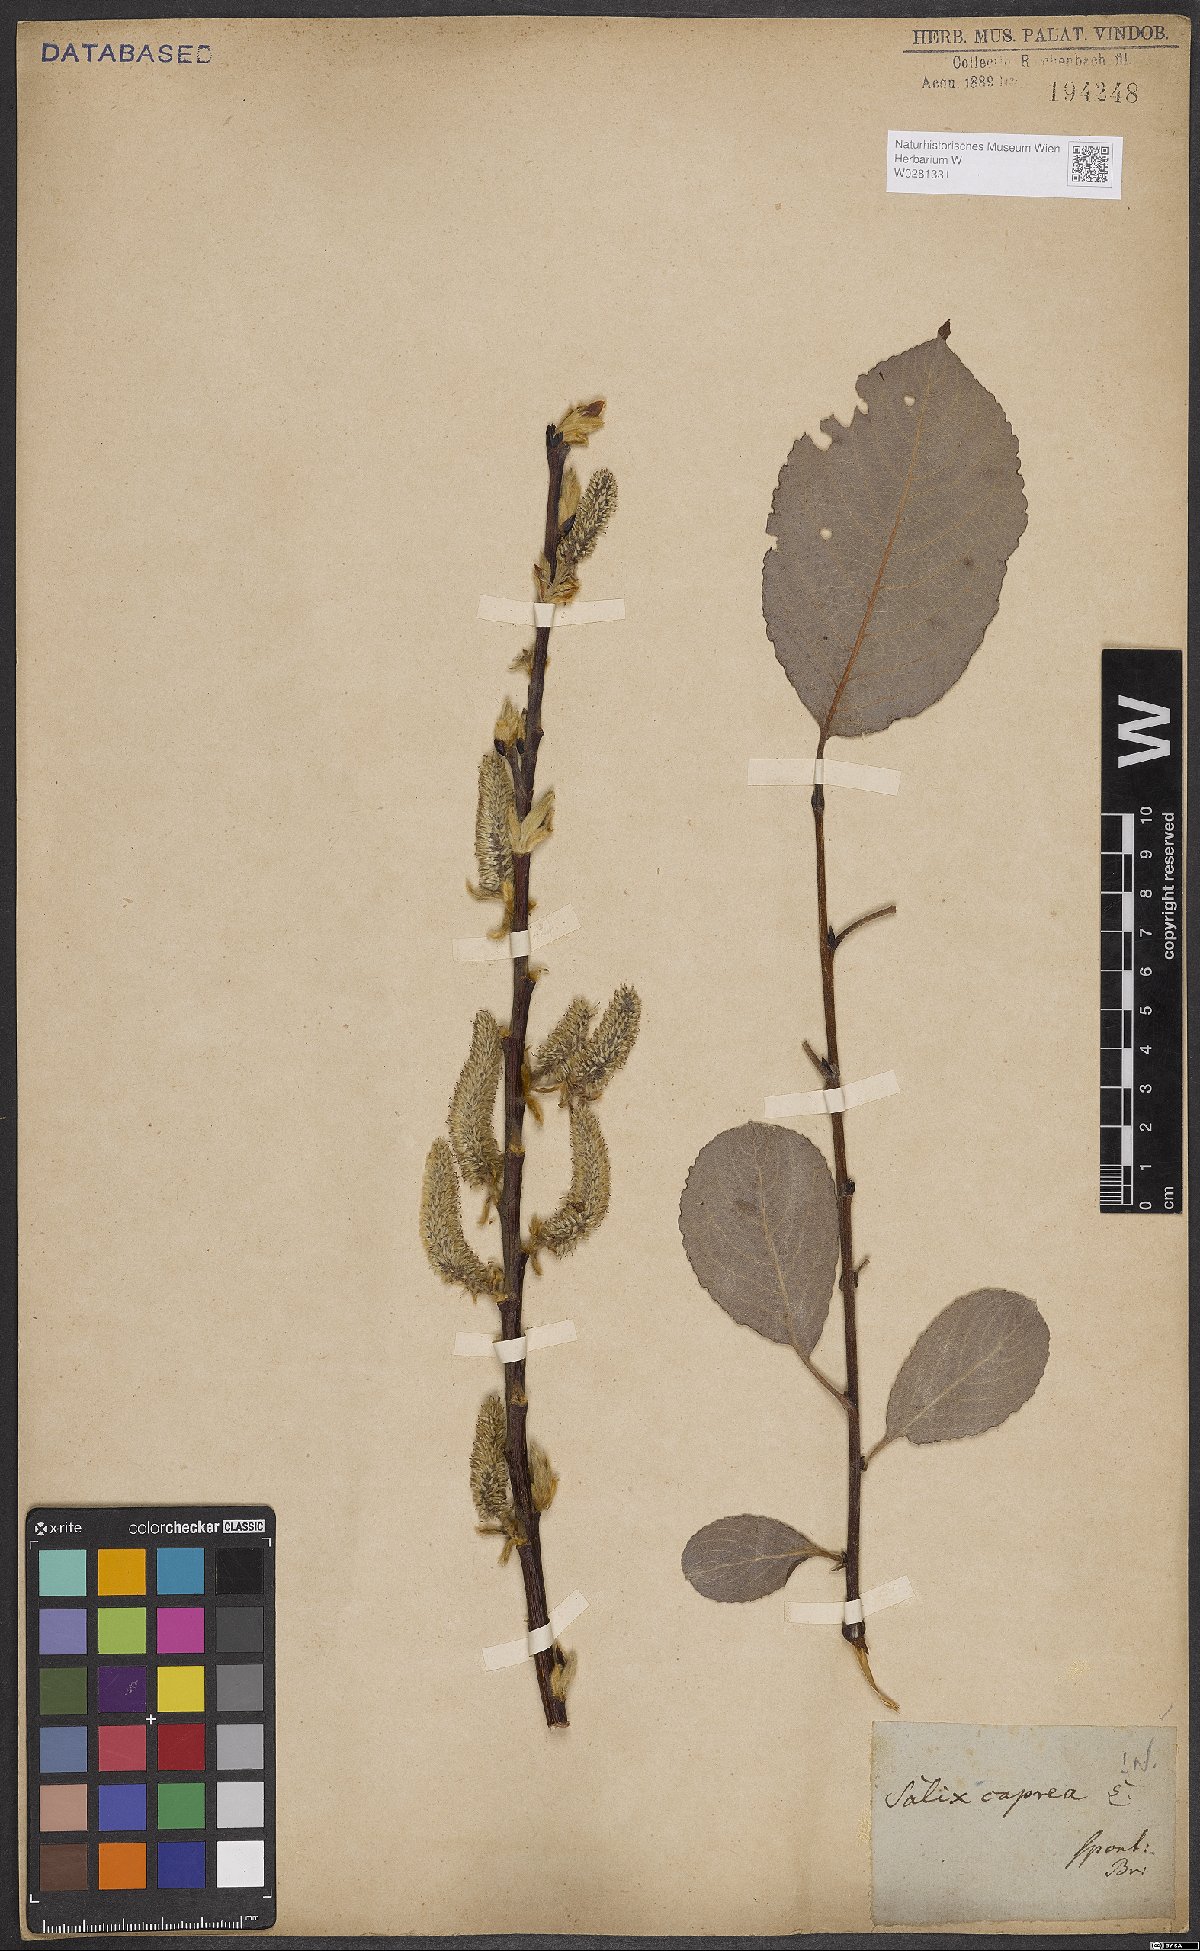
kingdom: Plantae
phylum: Tracheophyta
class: Magnoliopsida
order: Malpighiales
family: Salicaceae
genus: Salix
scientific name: Salix caprea
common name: Goat willow
